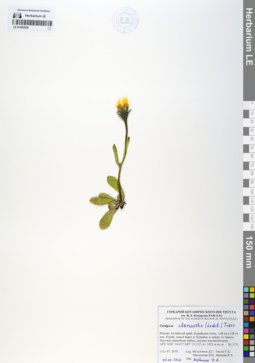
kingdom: Plantae
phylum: Tracheophyta
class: Magnoliopsida
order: Asterales
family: Asteraceae
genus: Crepis
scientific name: Crepis chrysantha
